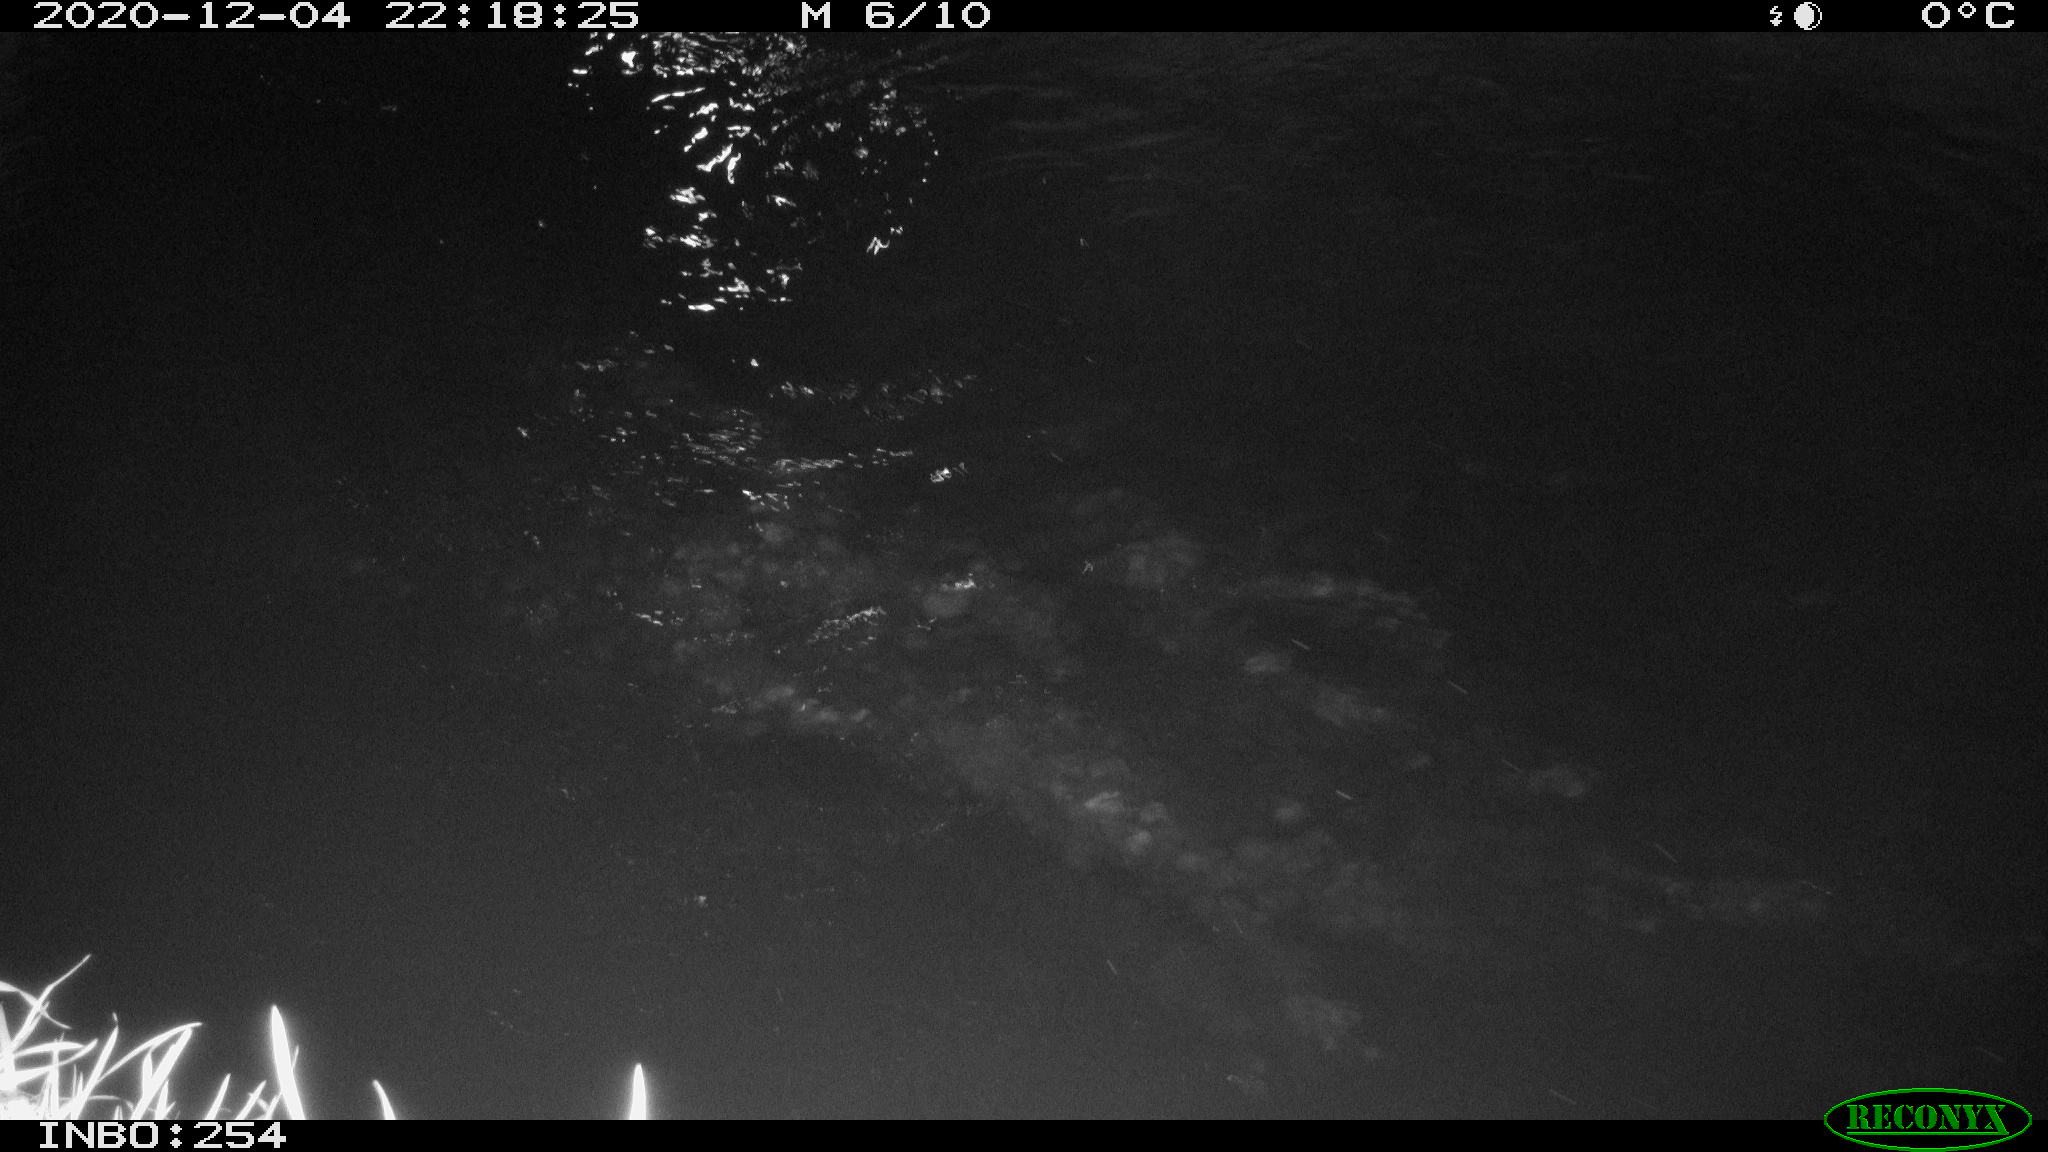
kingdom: Animalia
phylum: Chordata
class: Aves
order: Anseriformes
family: Anatidae
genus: Anas
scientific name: Anas platyrhynchos
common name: Mallard
